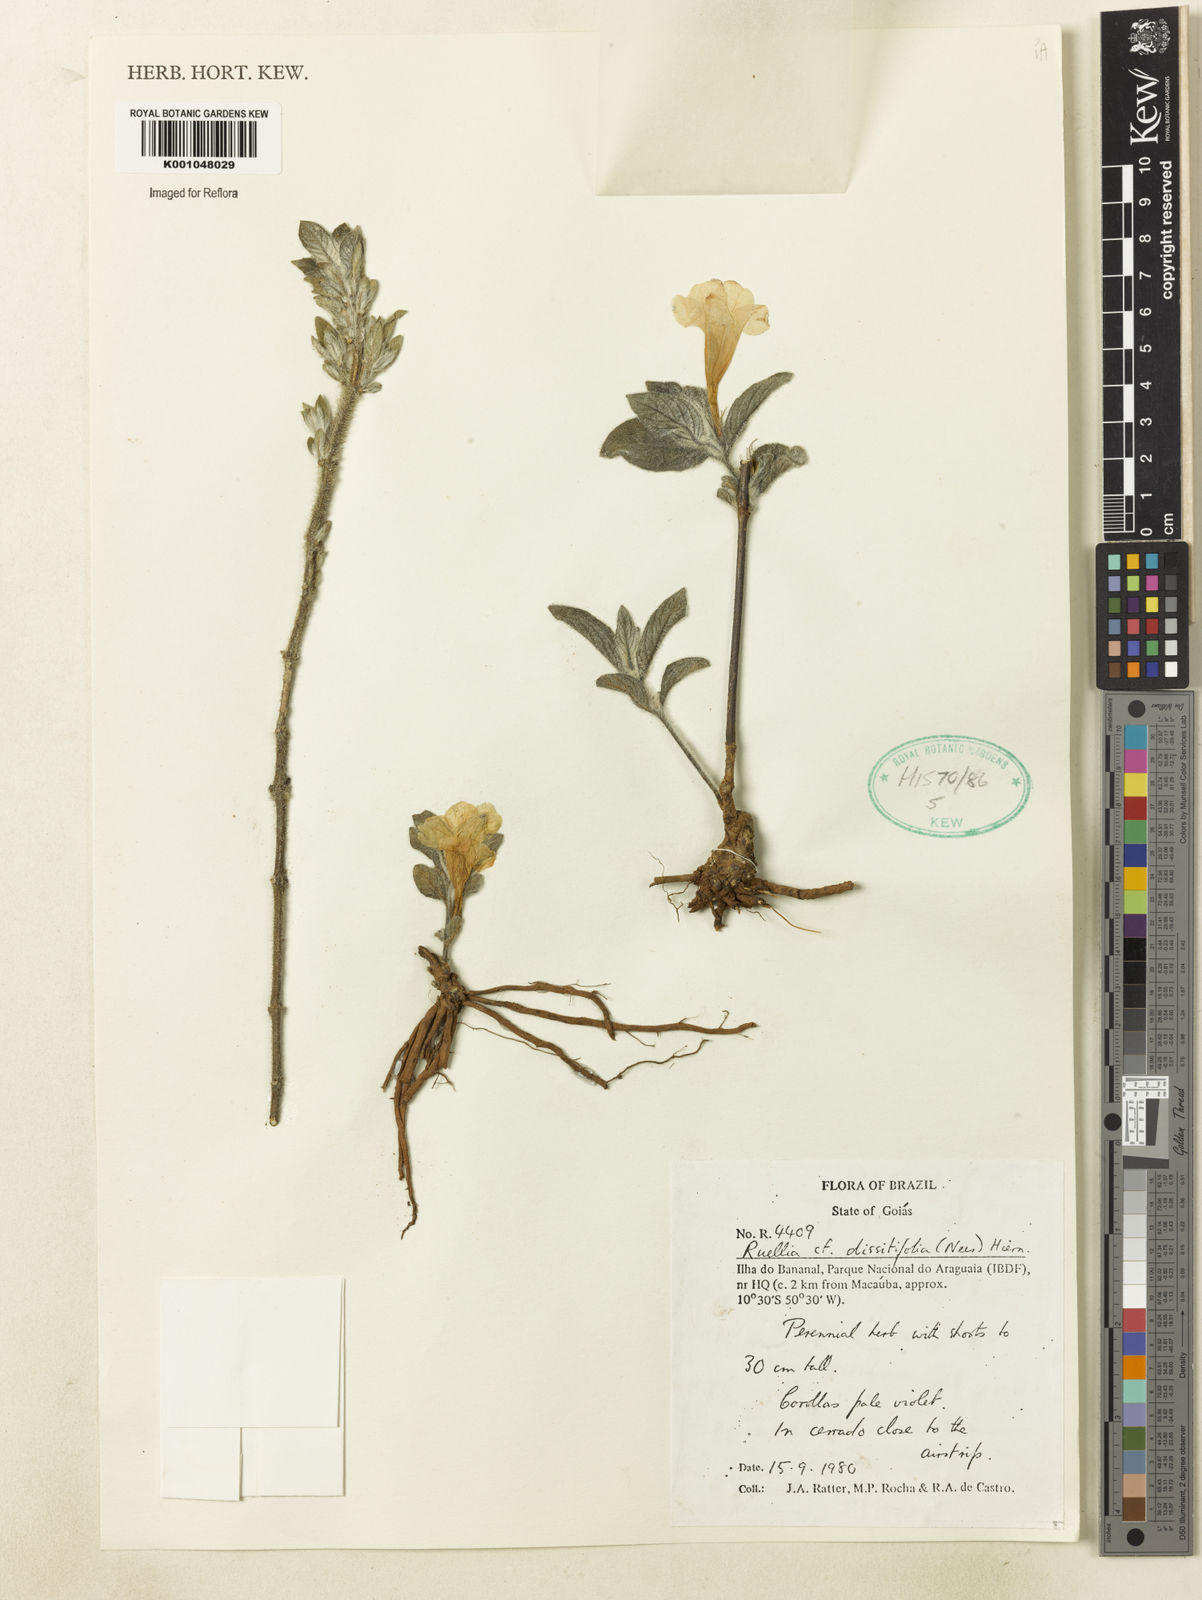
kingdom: Plantae
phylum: Tracheophyta
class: Magnoliopsida
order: Lamiales
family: Acanthaceae
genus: Ruellia
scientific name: Ruellia dissitifolia
